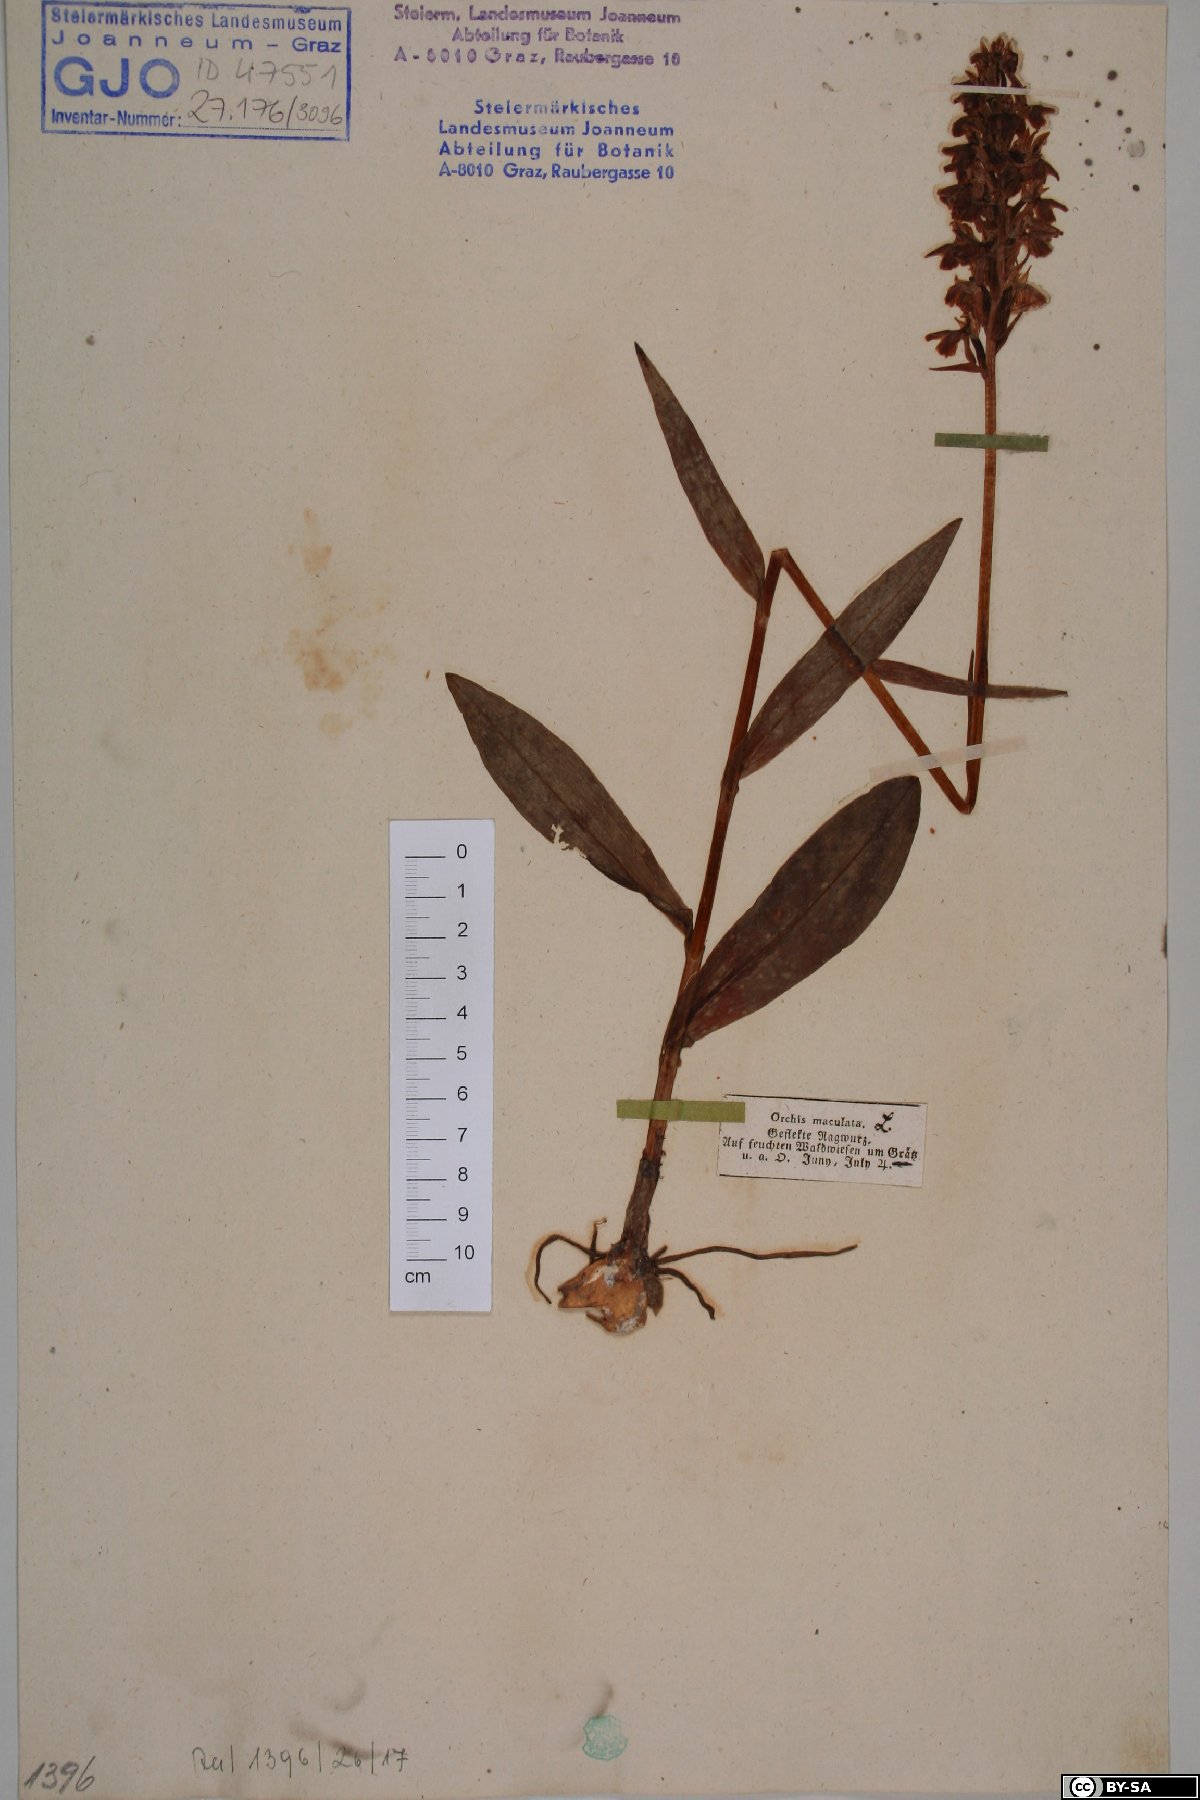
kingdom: Plantae
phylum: Tracheophyta
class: Liliopsida
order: Asparagales
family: Orchidaceae
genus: Dactylorhiza
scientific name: Dactylorhiza maculata
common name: Heath spotted-orchid
